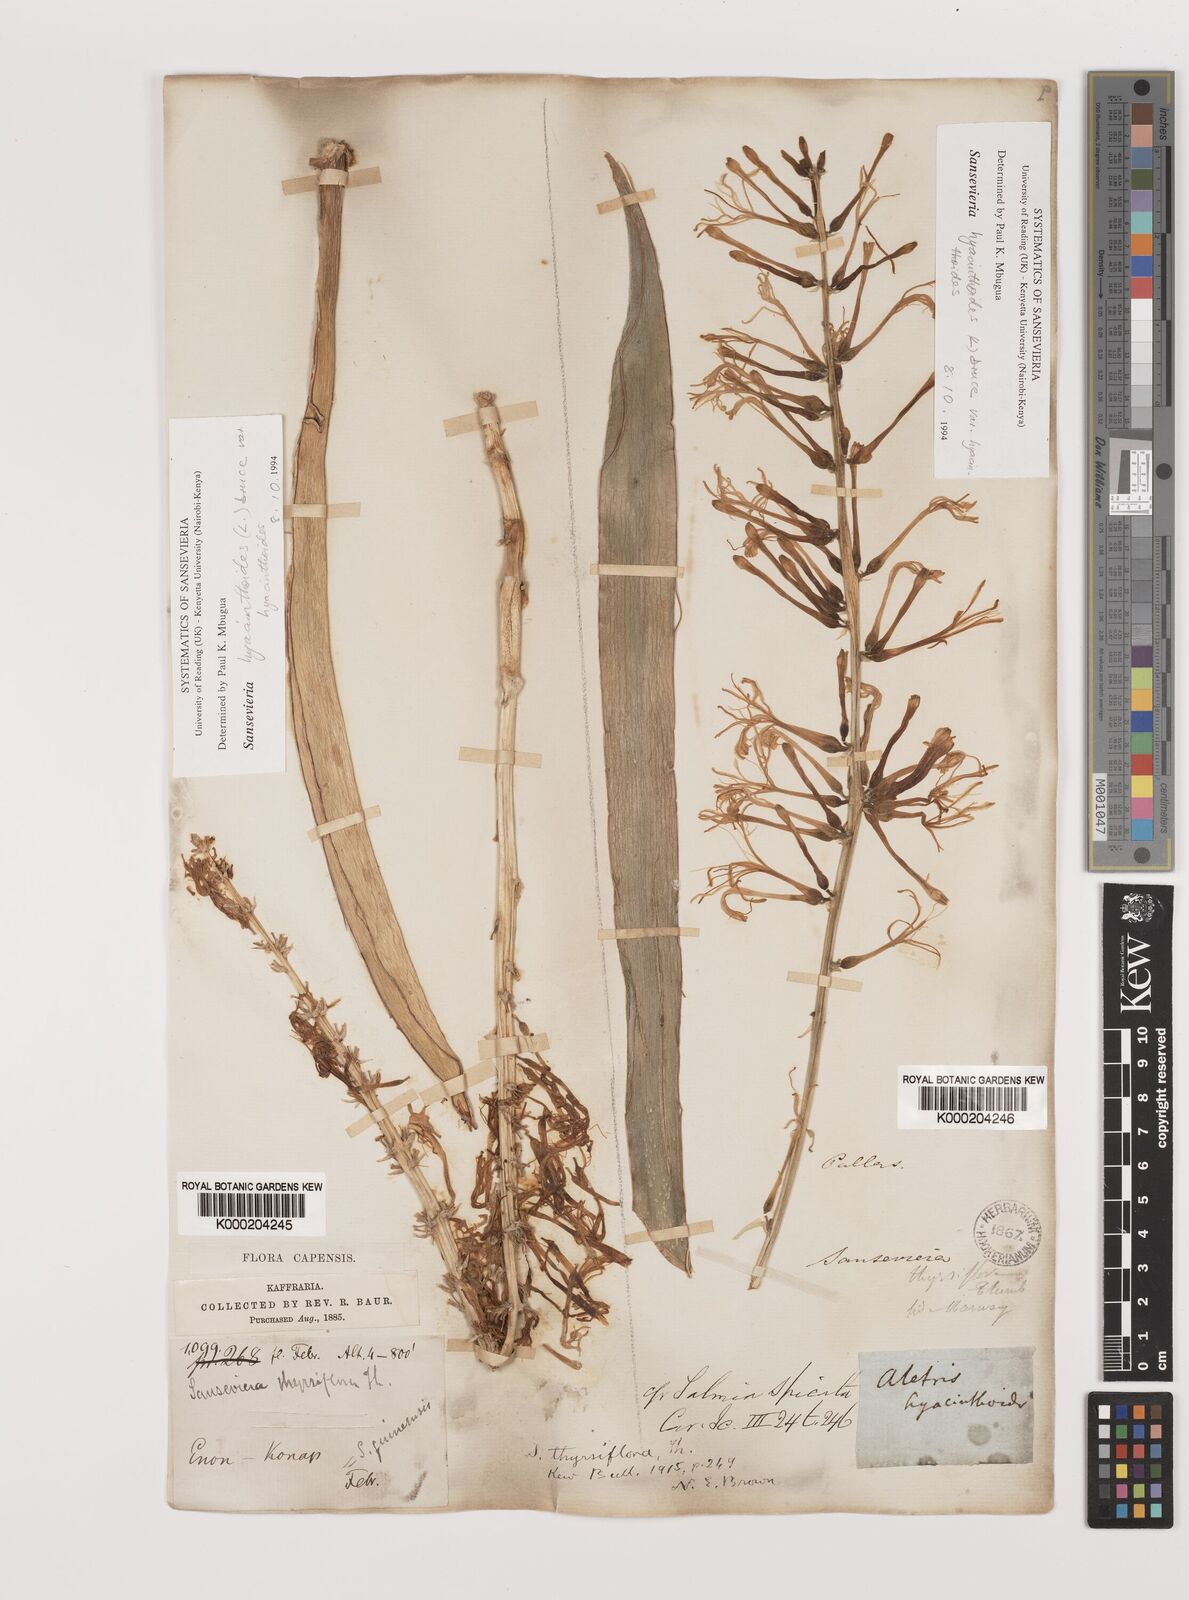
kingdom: Plantae
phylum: Tracheophyta
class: Liliopsida
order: Asparagales
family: Asparagaceae
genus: Dracaena
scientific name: Dracaena hyacinthoides
